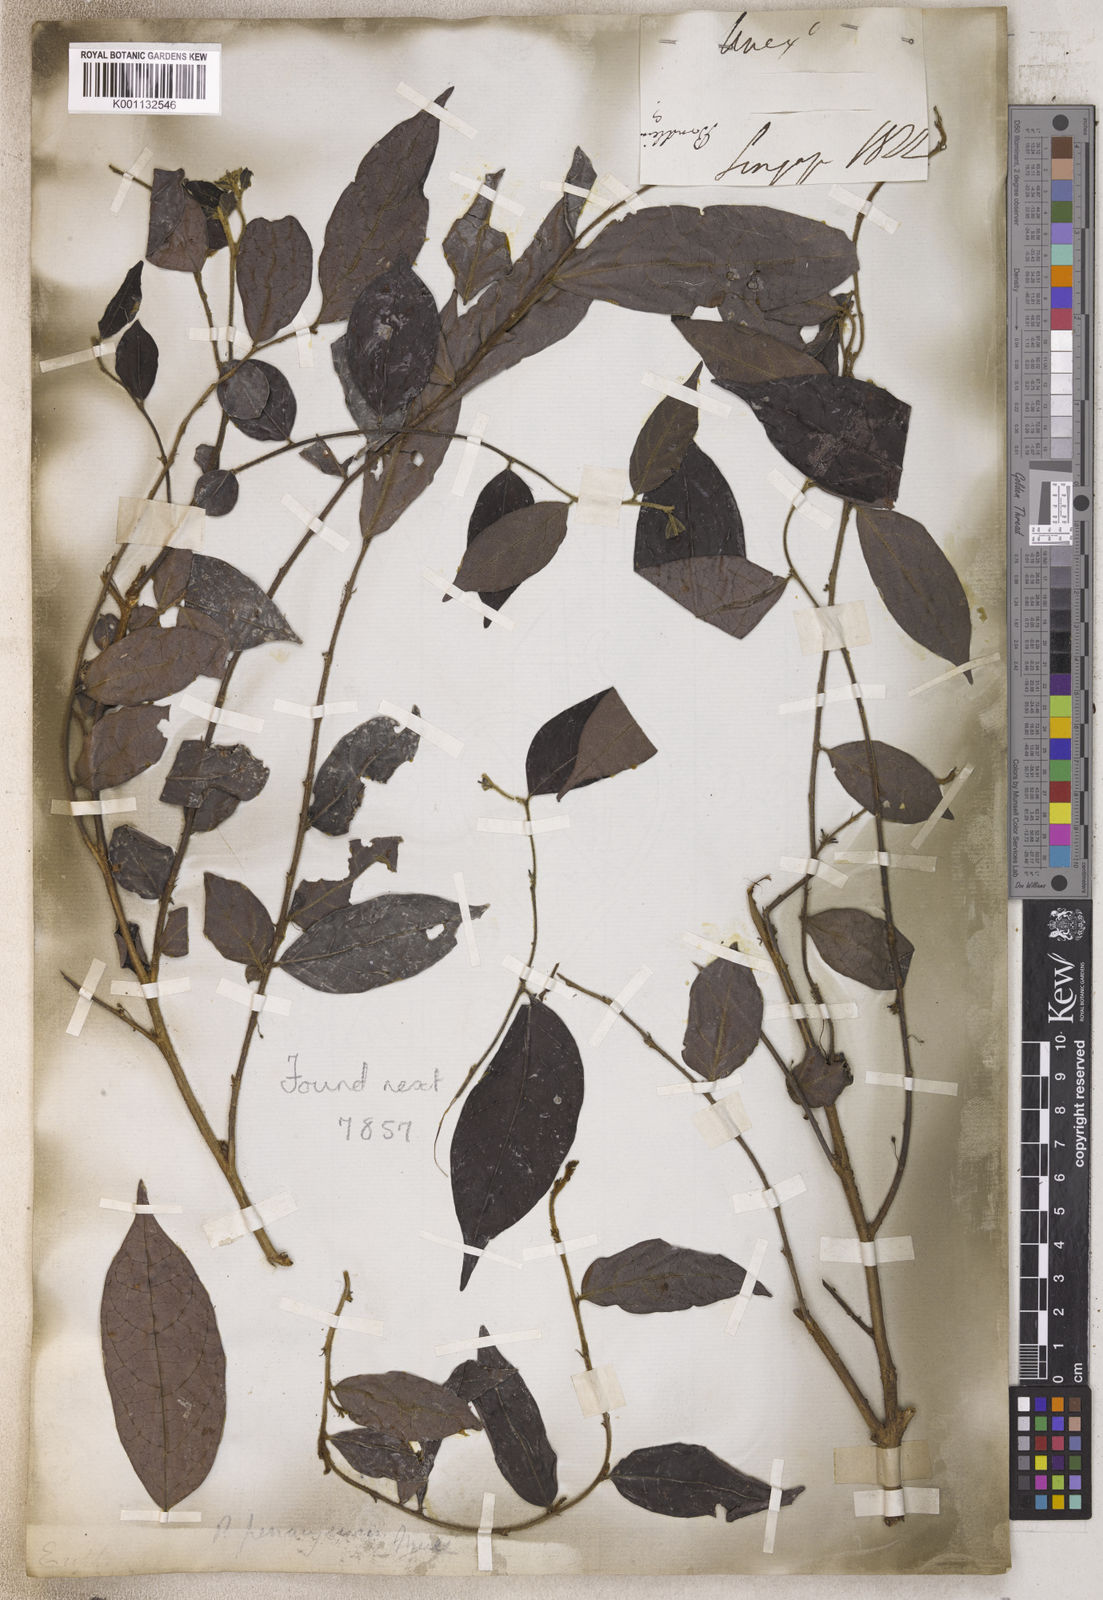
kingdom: Plantae
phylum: Tracheophyta
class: Magnoliopsida
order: Malpighiales
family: Phyllanthaceae
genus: Phyllanthus
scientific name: Phyllanthus
